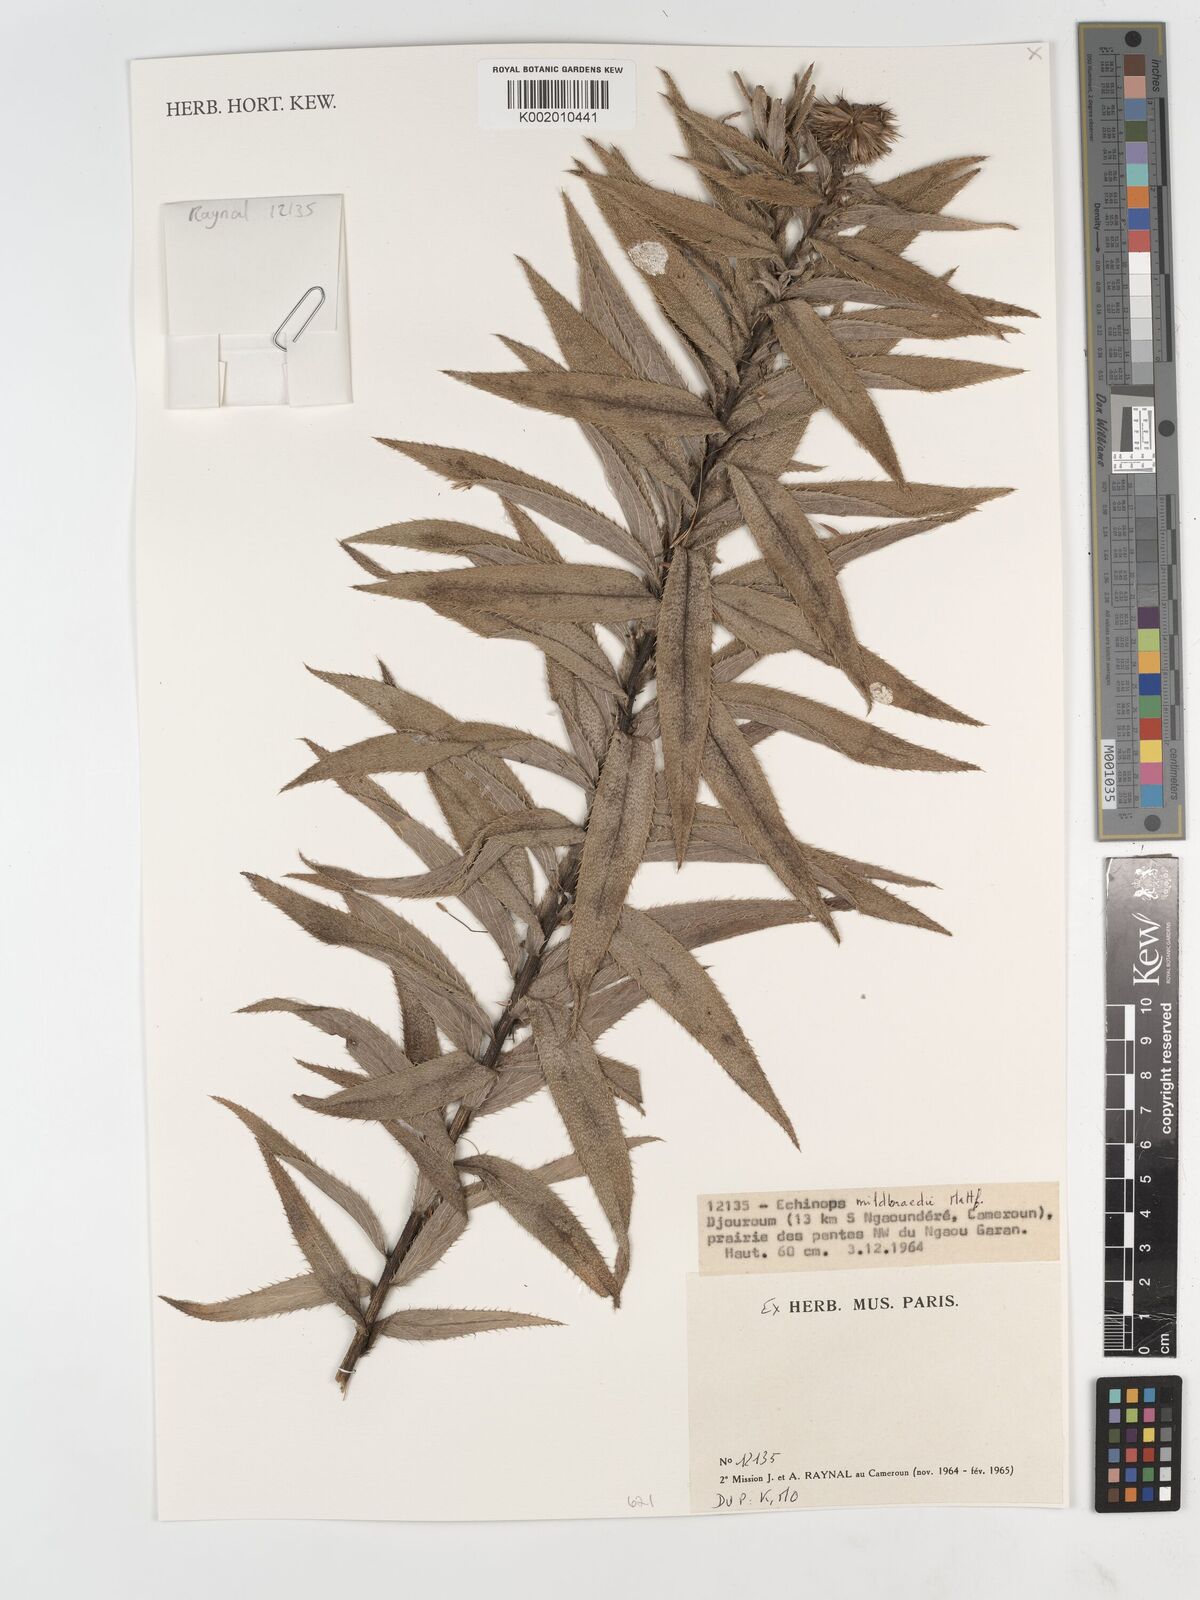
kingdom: Plantae
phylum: Tracheophyta
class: Magnoliopsida
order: Asterales
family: Asteraceae
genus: Echinops
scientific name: Echinops mildbraedii
